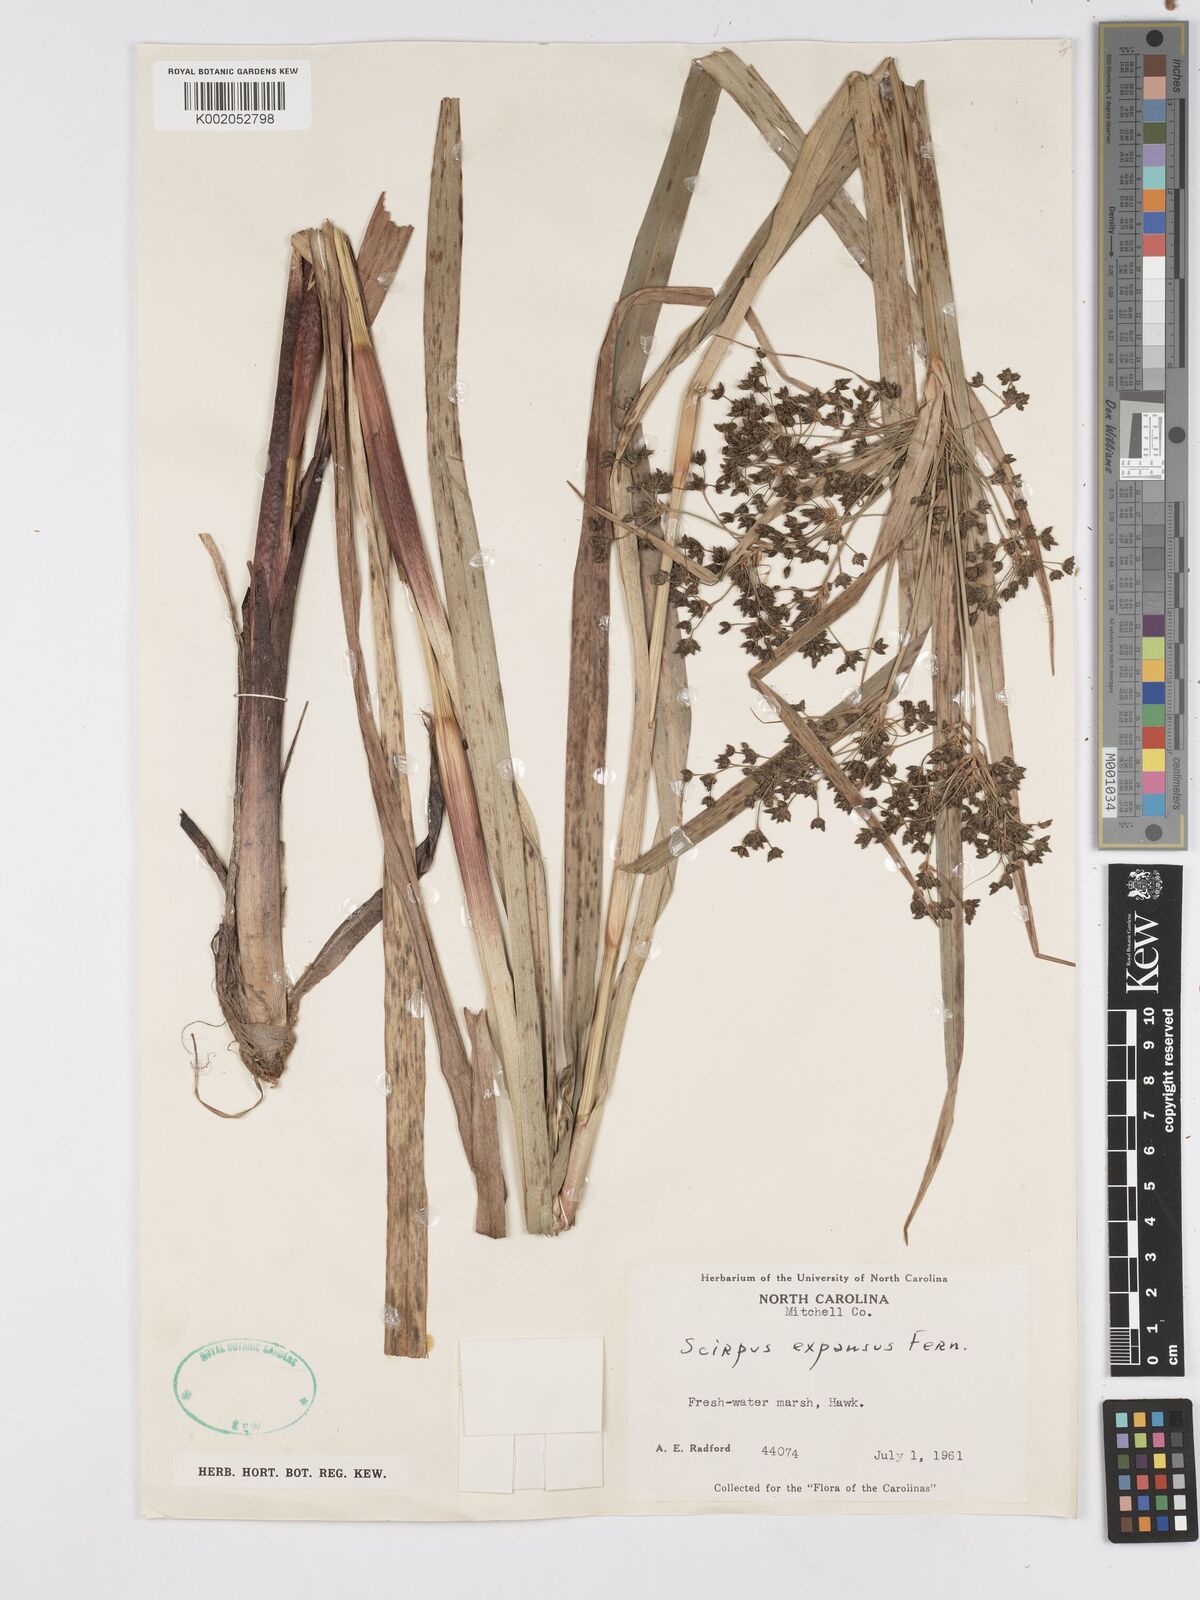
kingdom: Plantae
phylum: Tracheophyta
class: Liliopsida
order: Poales
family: Cyperaceae
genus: Scirpus
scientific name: Scirpus expansus
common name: Woodland bulrush
